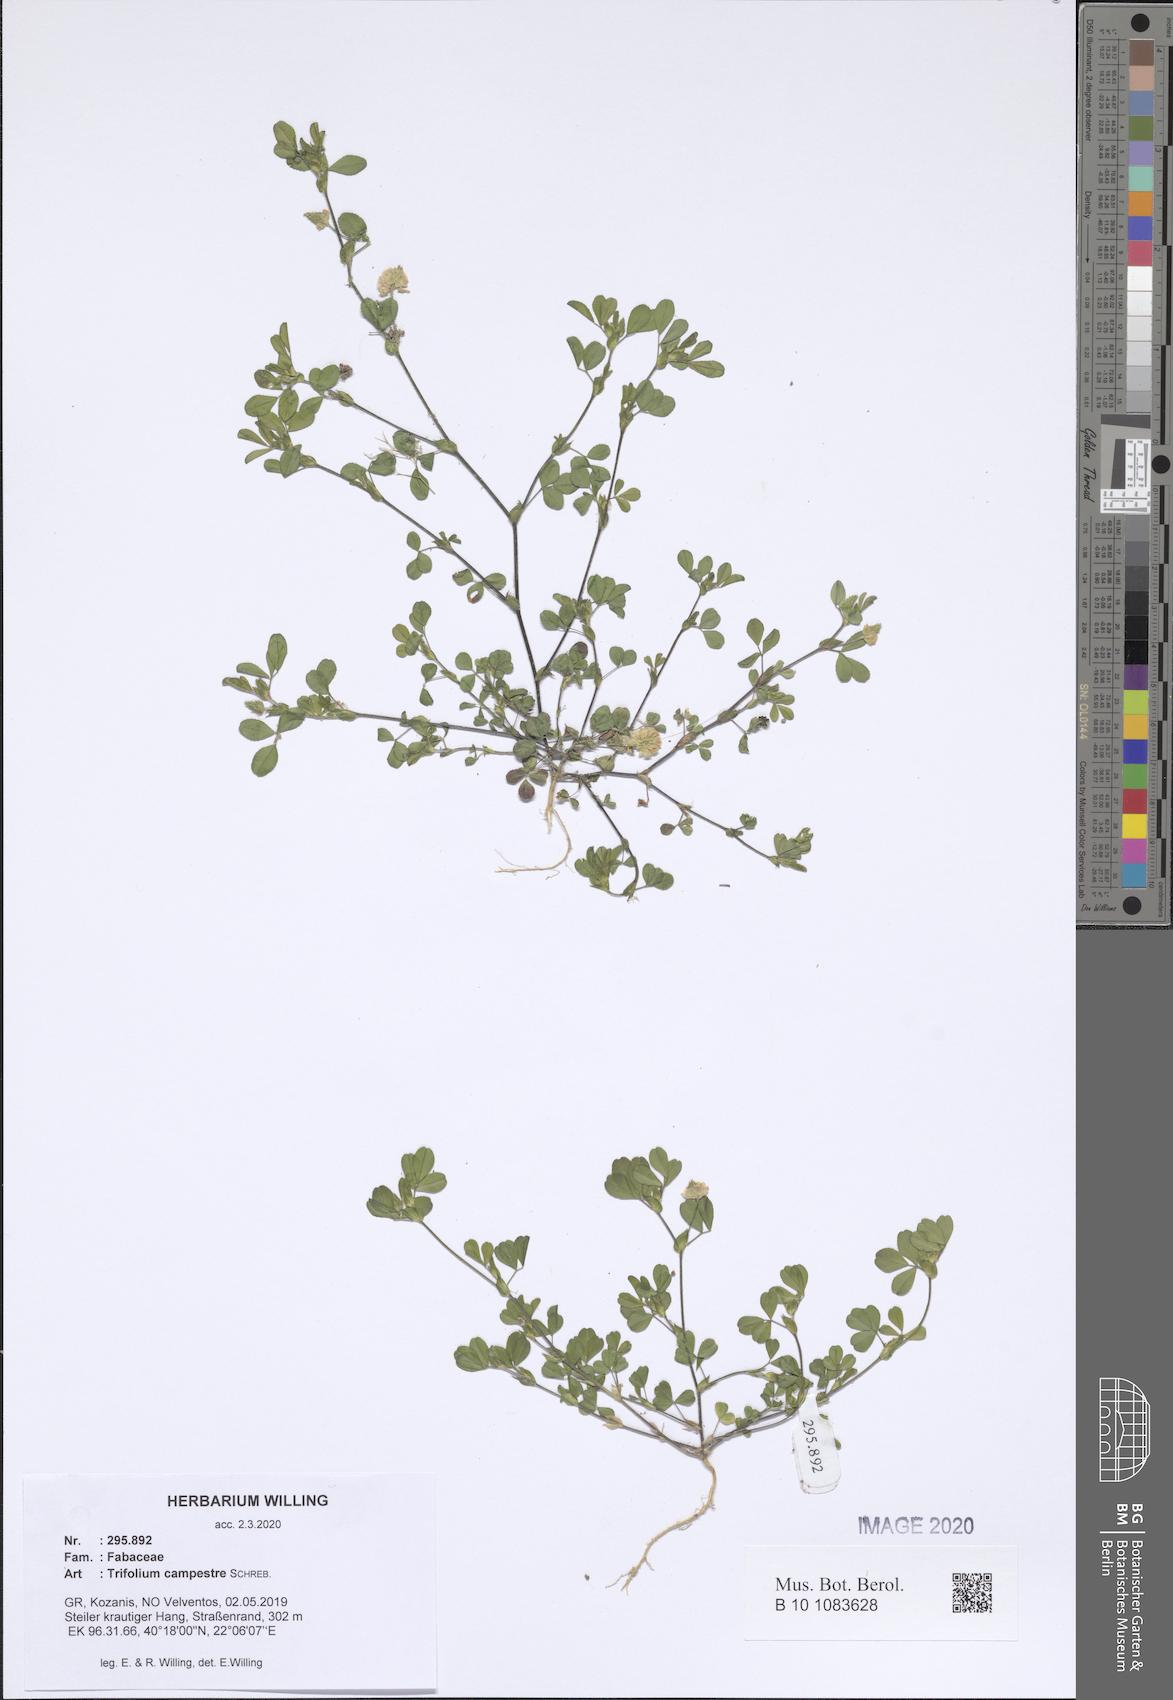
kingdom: Plantae
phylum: Tracheophyta
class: Magnoliopsida
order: Fabales
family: Fabaceae
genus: Trifolium
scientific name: Trifolium campestre
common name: Field clover
